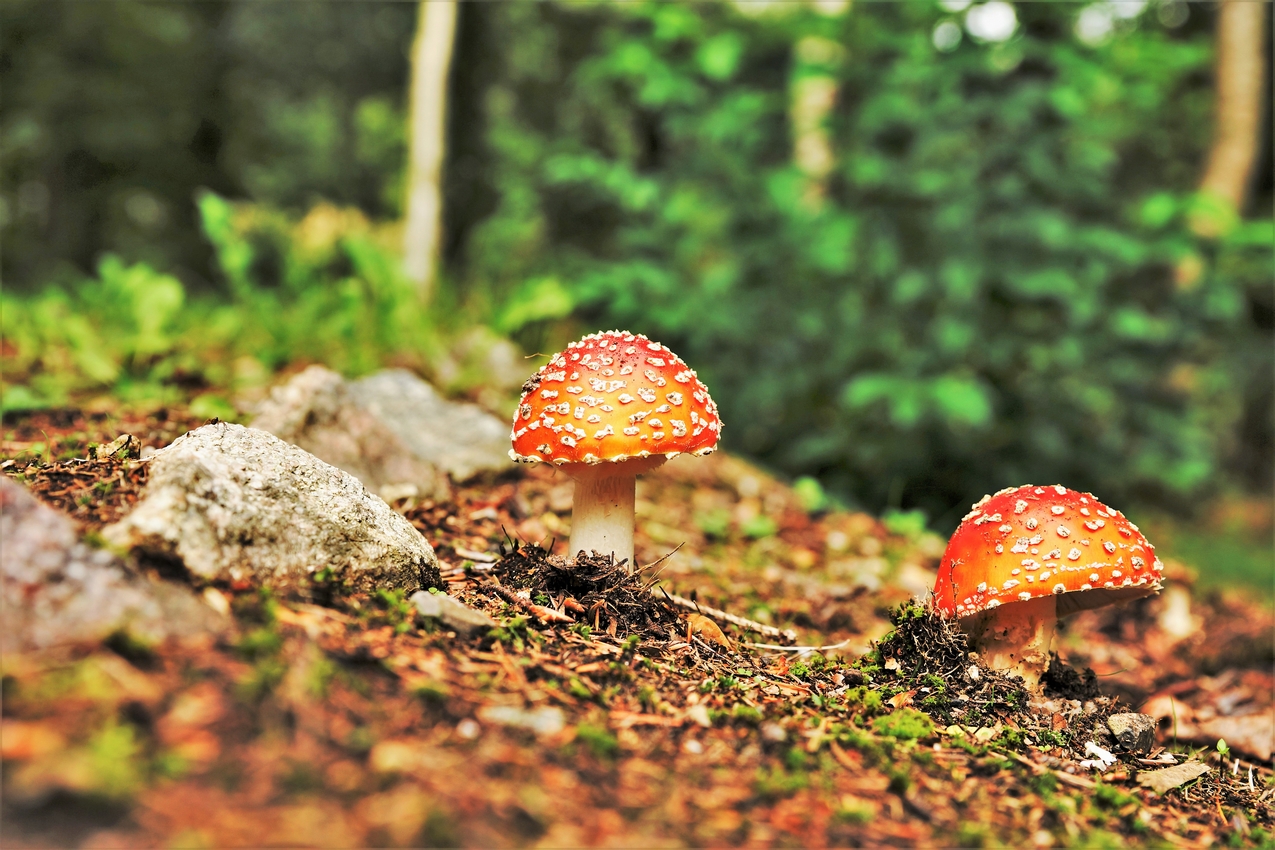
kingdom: Fungi
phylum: Basidiomycota
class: Agaricomycetes
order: Agaricales
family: Amanitaceae
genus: Amanita
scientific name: Amanita muscaria
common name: rød fluesvamp
